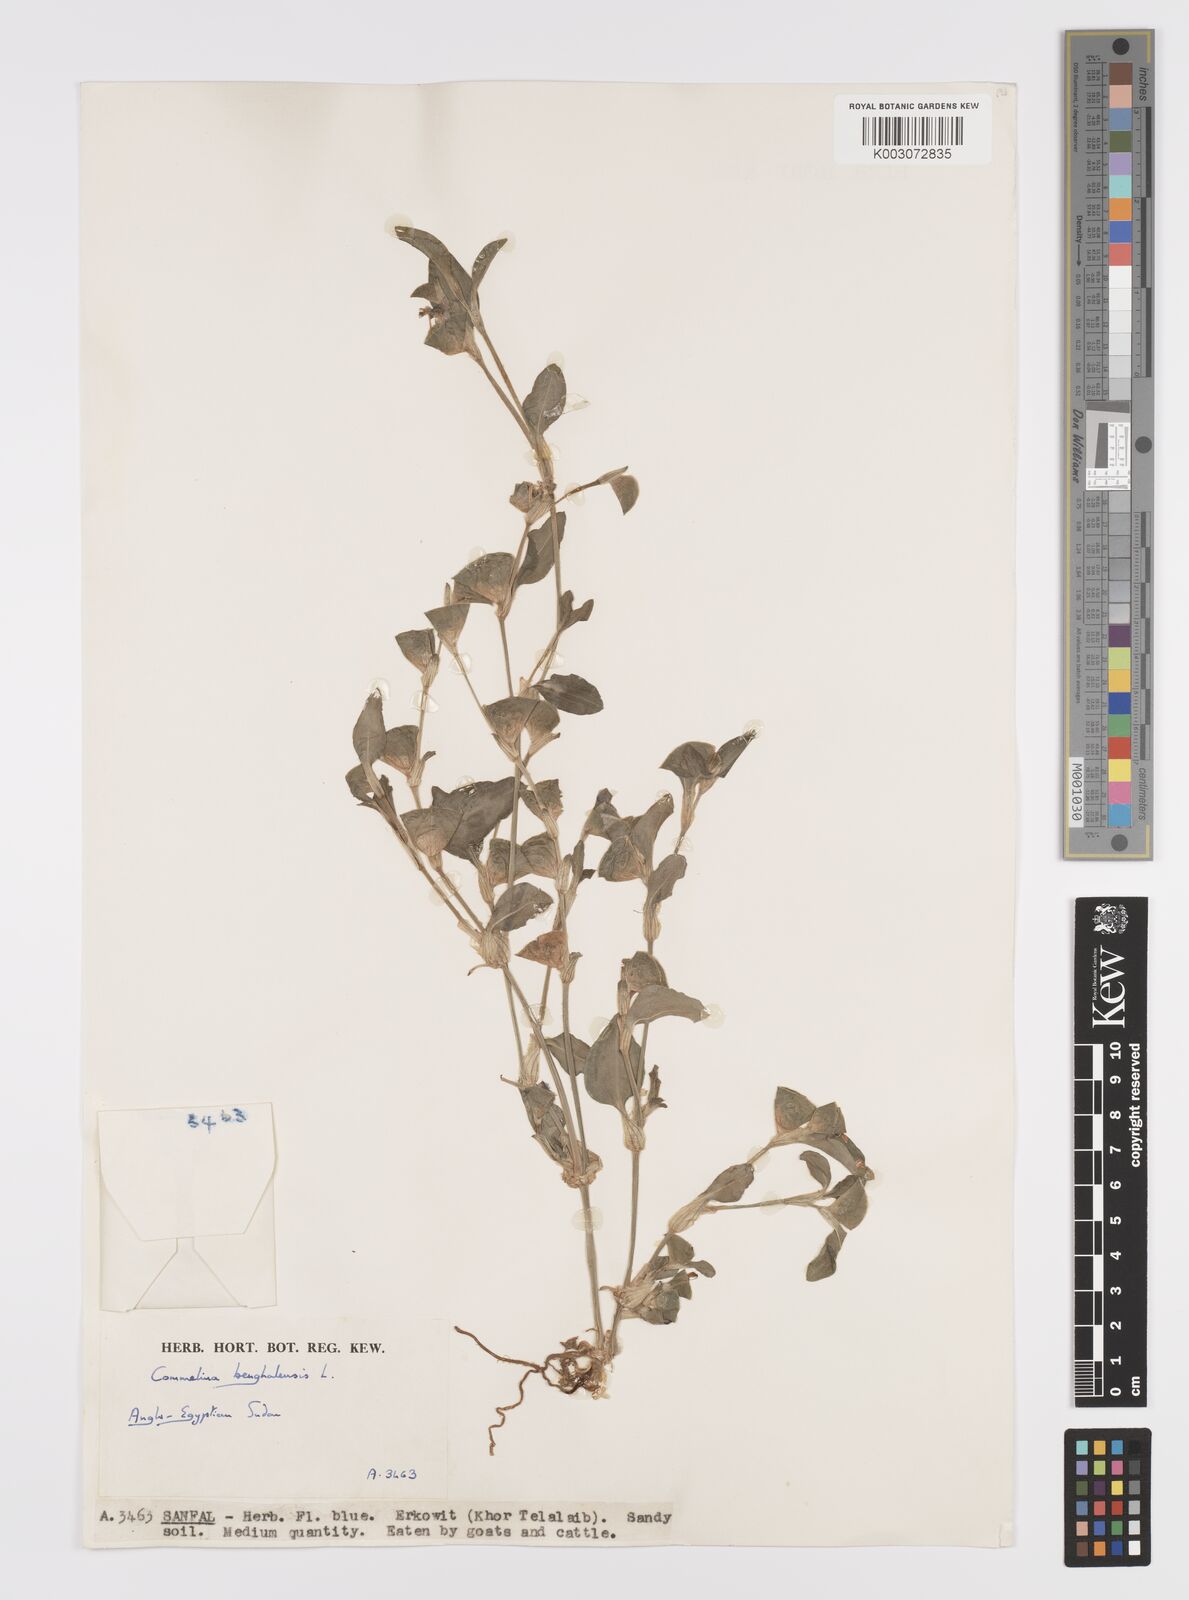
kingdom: Plantae
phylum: Tracheophyta
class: Liliopsida
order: Commelinales
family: Commelinaceae
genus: Commelina
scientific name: Commelina benghalensis
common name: Jio
